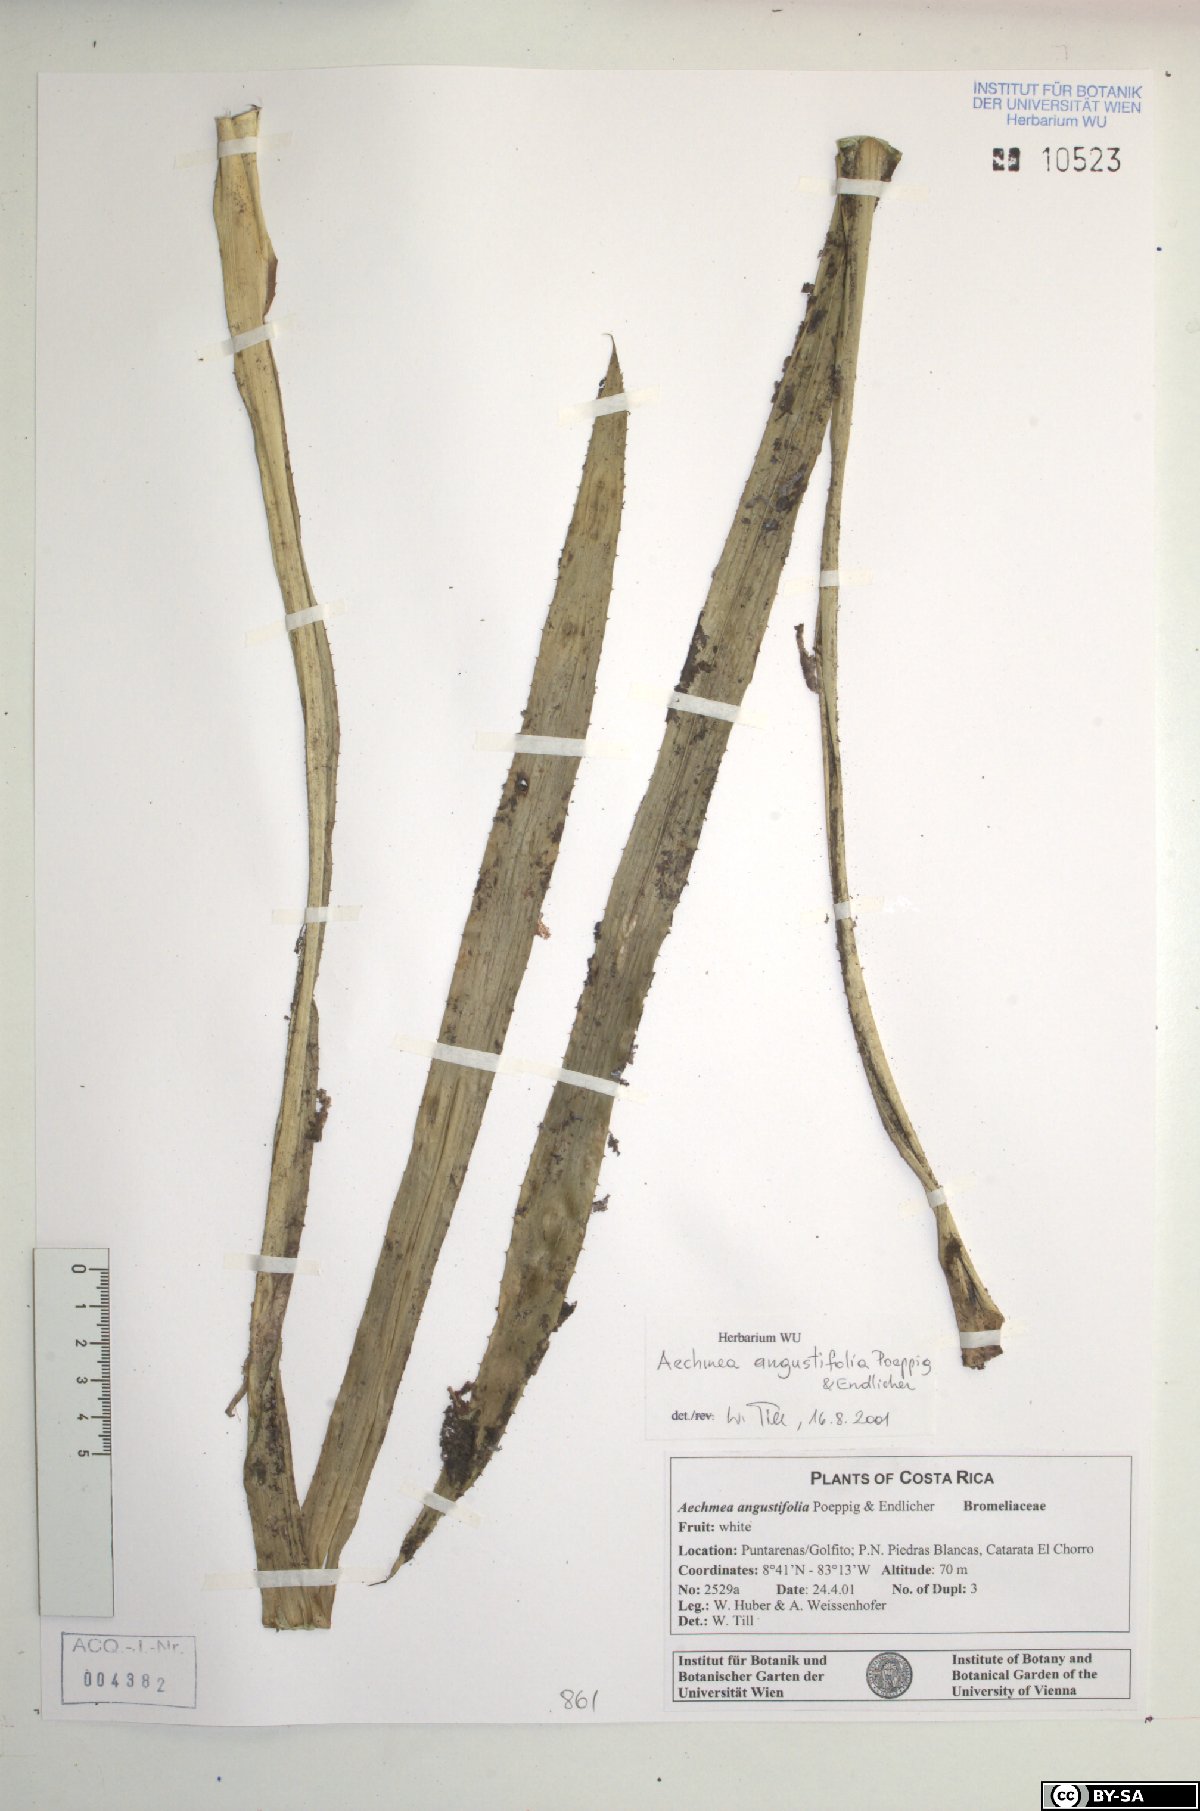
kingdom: Plantae
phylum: Tracheophyta
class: Liliopsida
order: Poales
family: Bromeliaceae
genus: Aechmea
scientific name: Aechmea angustifolia
